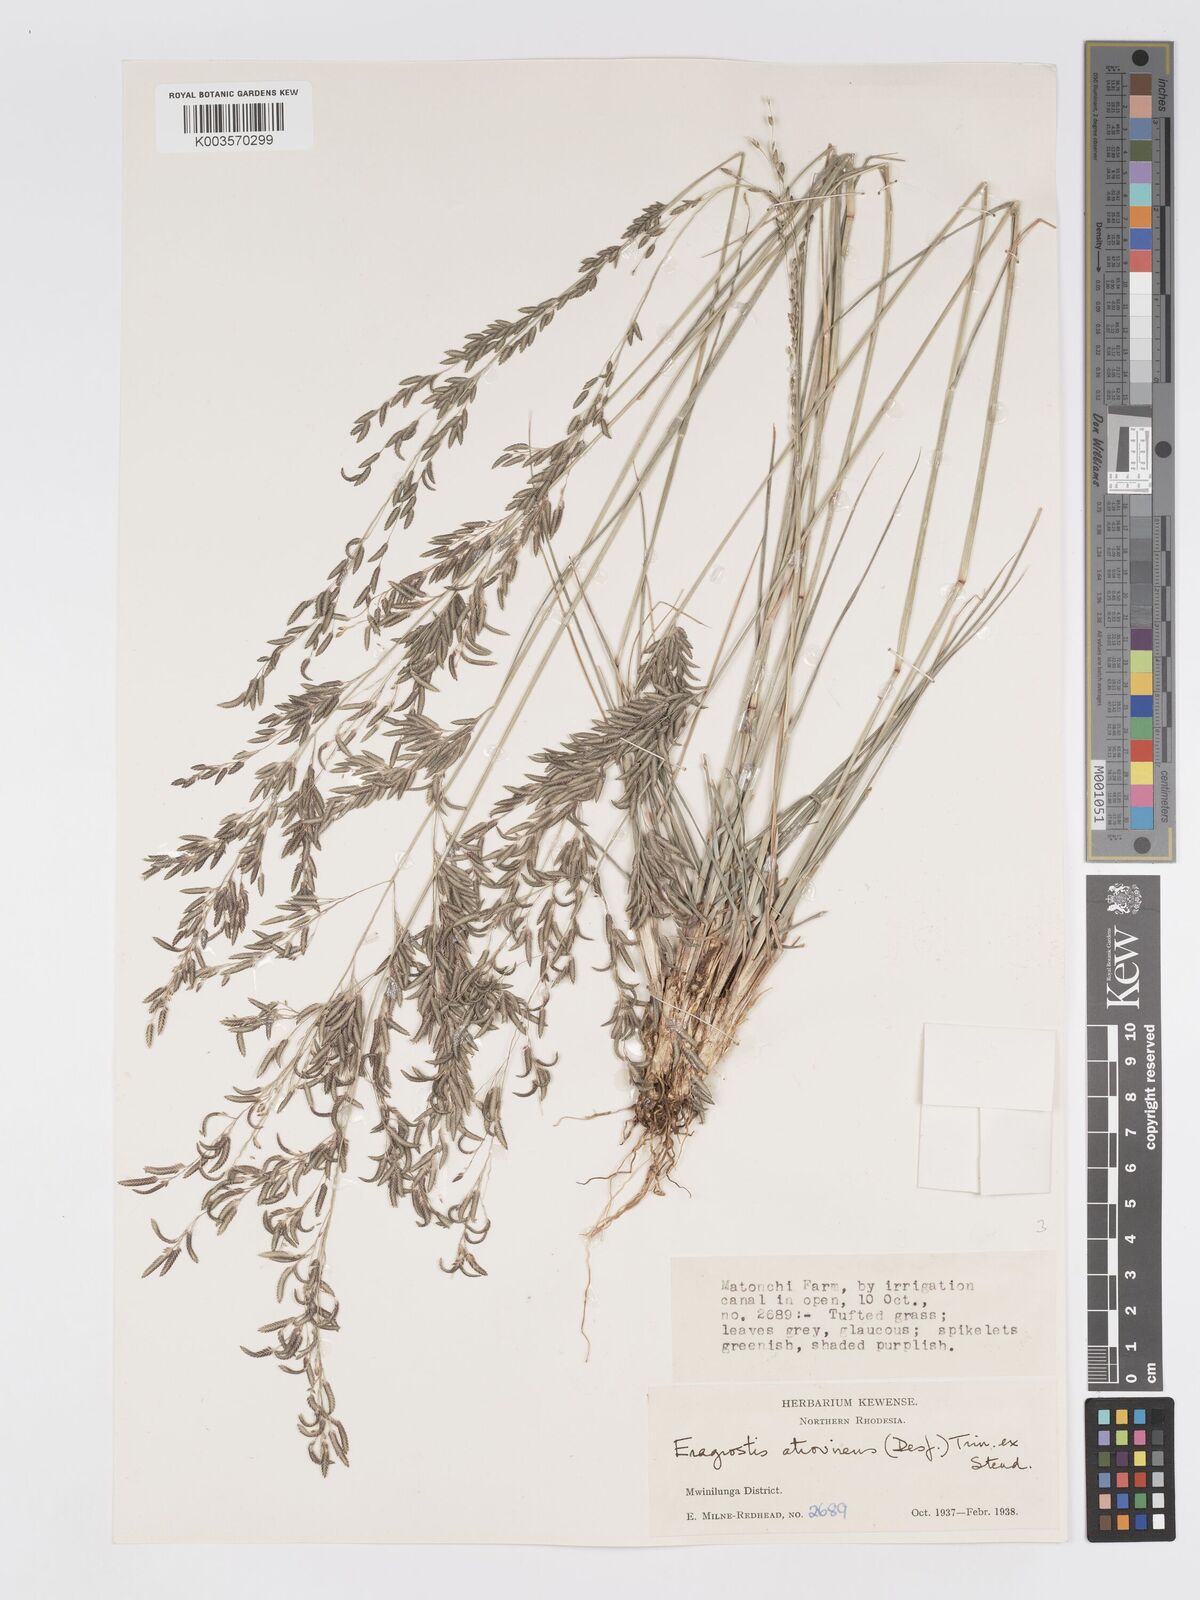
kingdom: Plantae
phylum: Tracheophyta
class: Liliopsida
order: Poales
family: Poaceae
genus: Eragrostis
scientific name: Eragrostis atrovirens
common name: Thalia lovegrass
